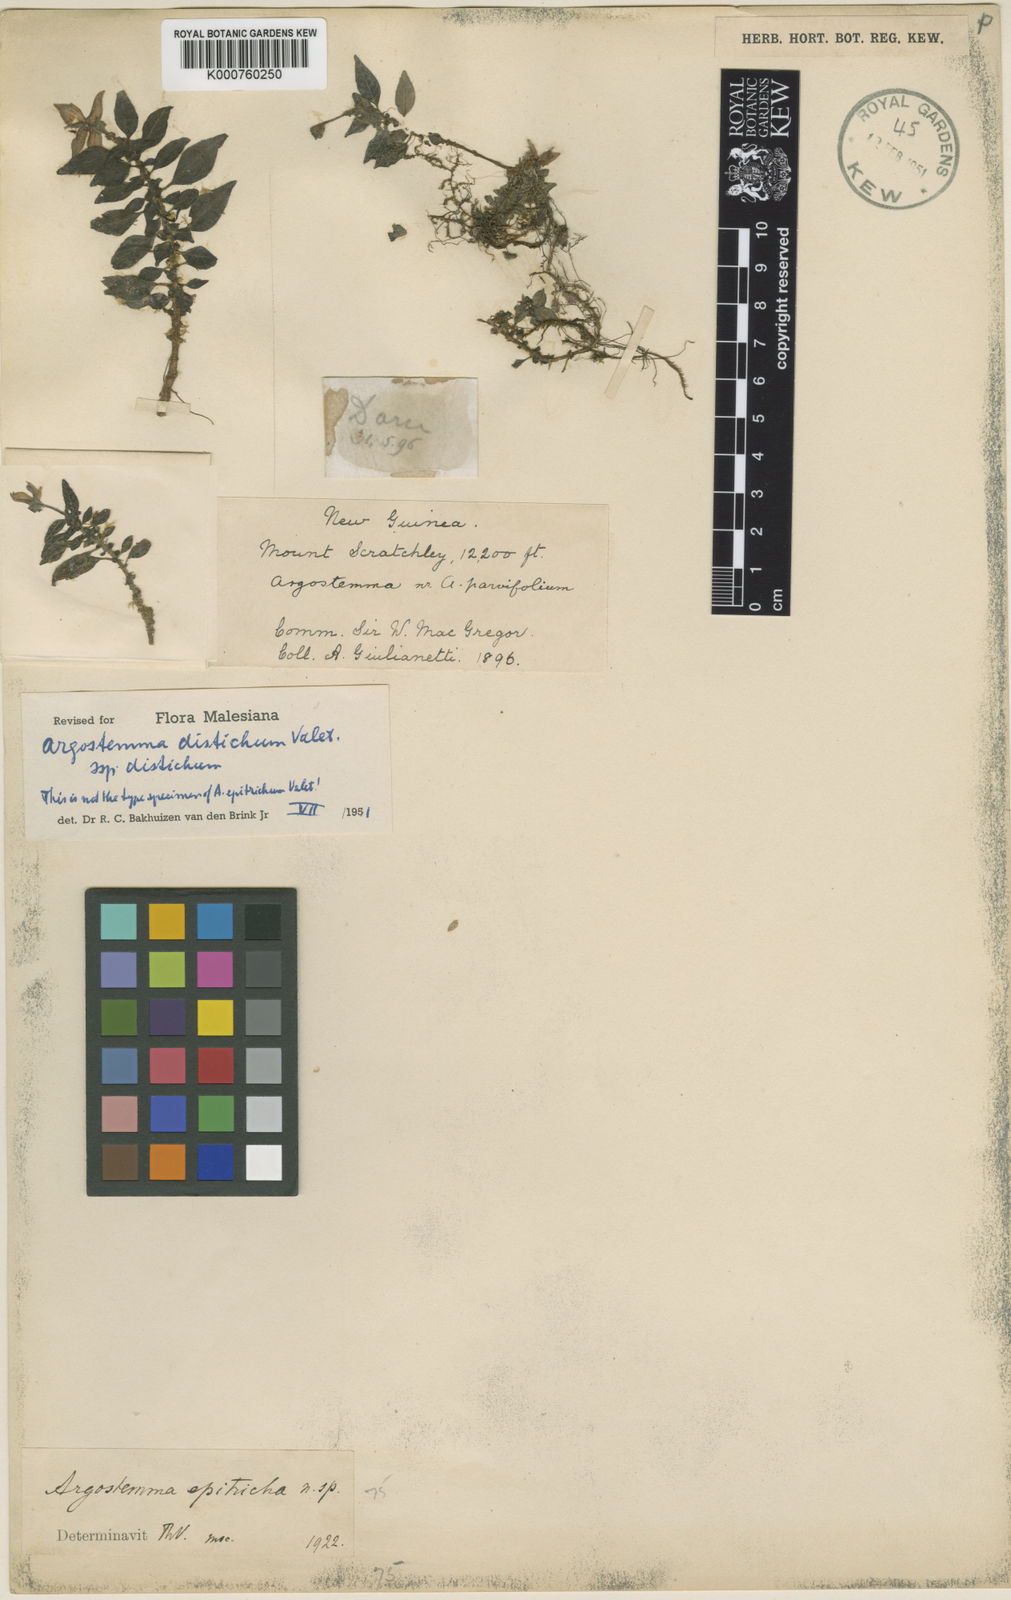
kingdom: Plantae
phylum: Tracheophyta
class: Magnoliopsida
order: Gentianales
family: Rubiaceae
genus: Argostemma
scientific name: Argostemma distichum
